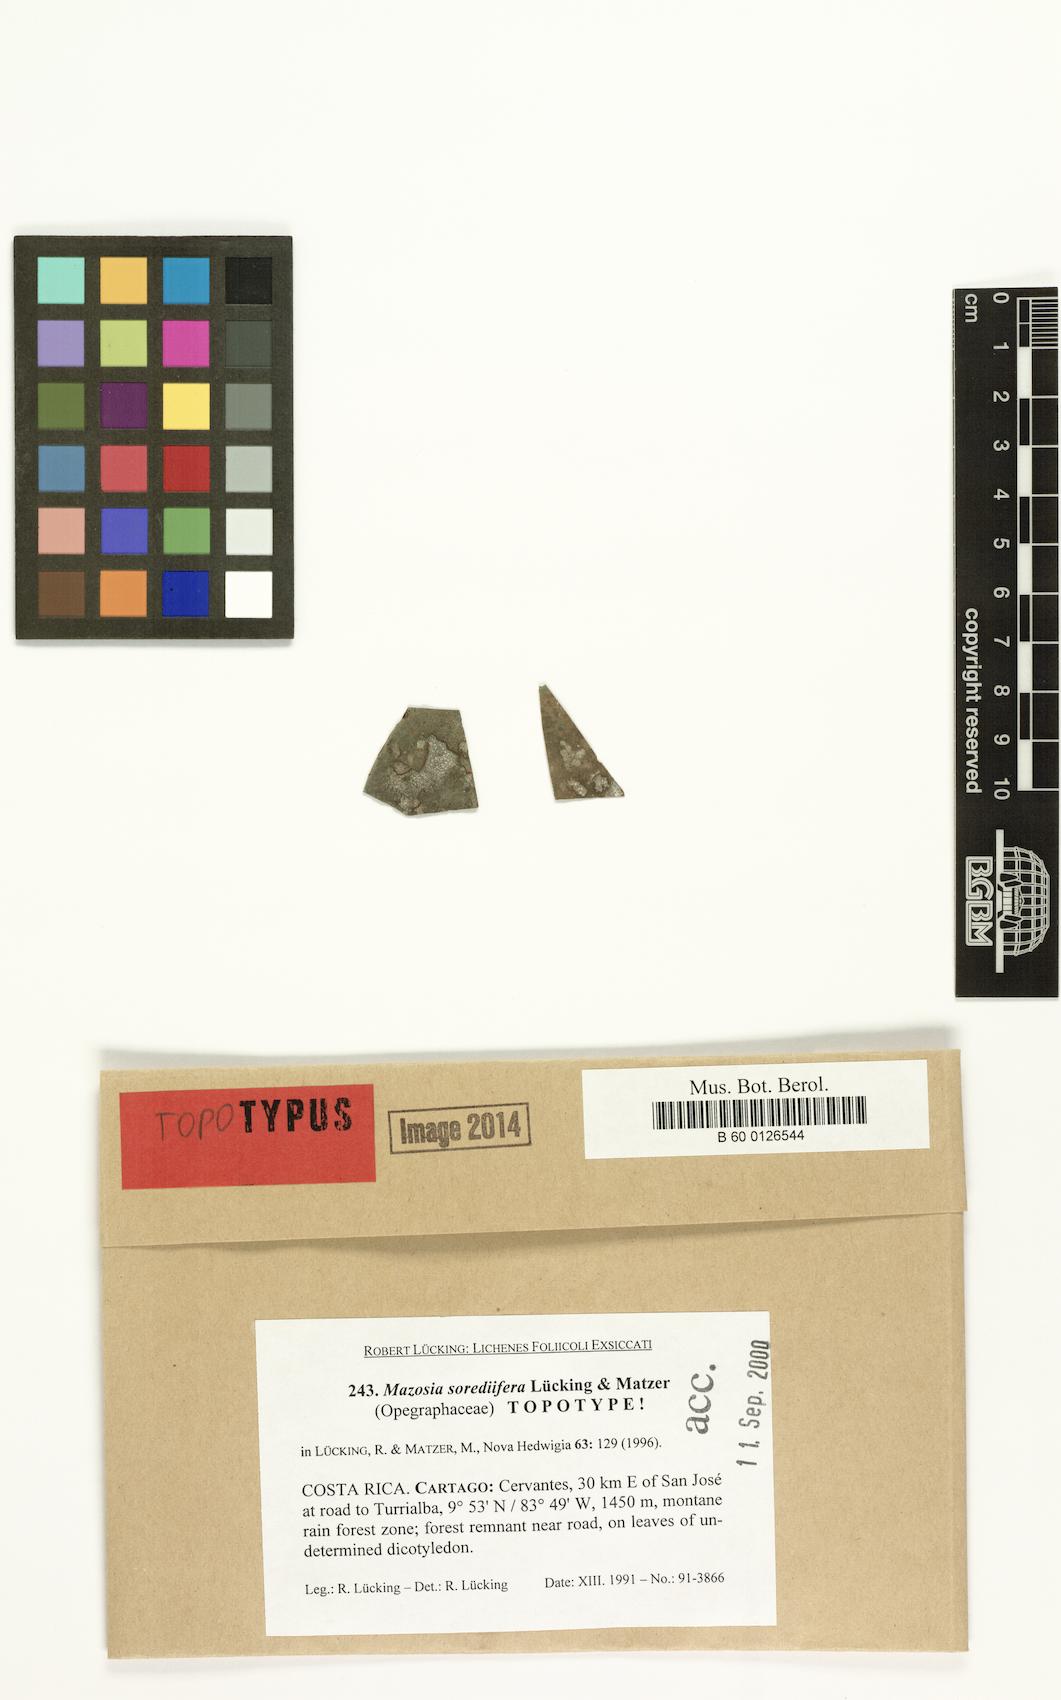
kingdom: Fungi
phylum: Ascomycota
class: Arthoniomycetes
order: Arthoniales
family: Roccellaceae
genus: Mazosia
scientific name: Mazosia
